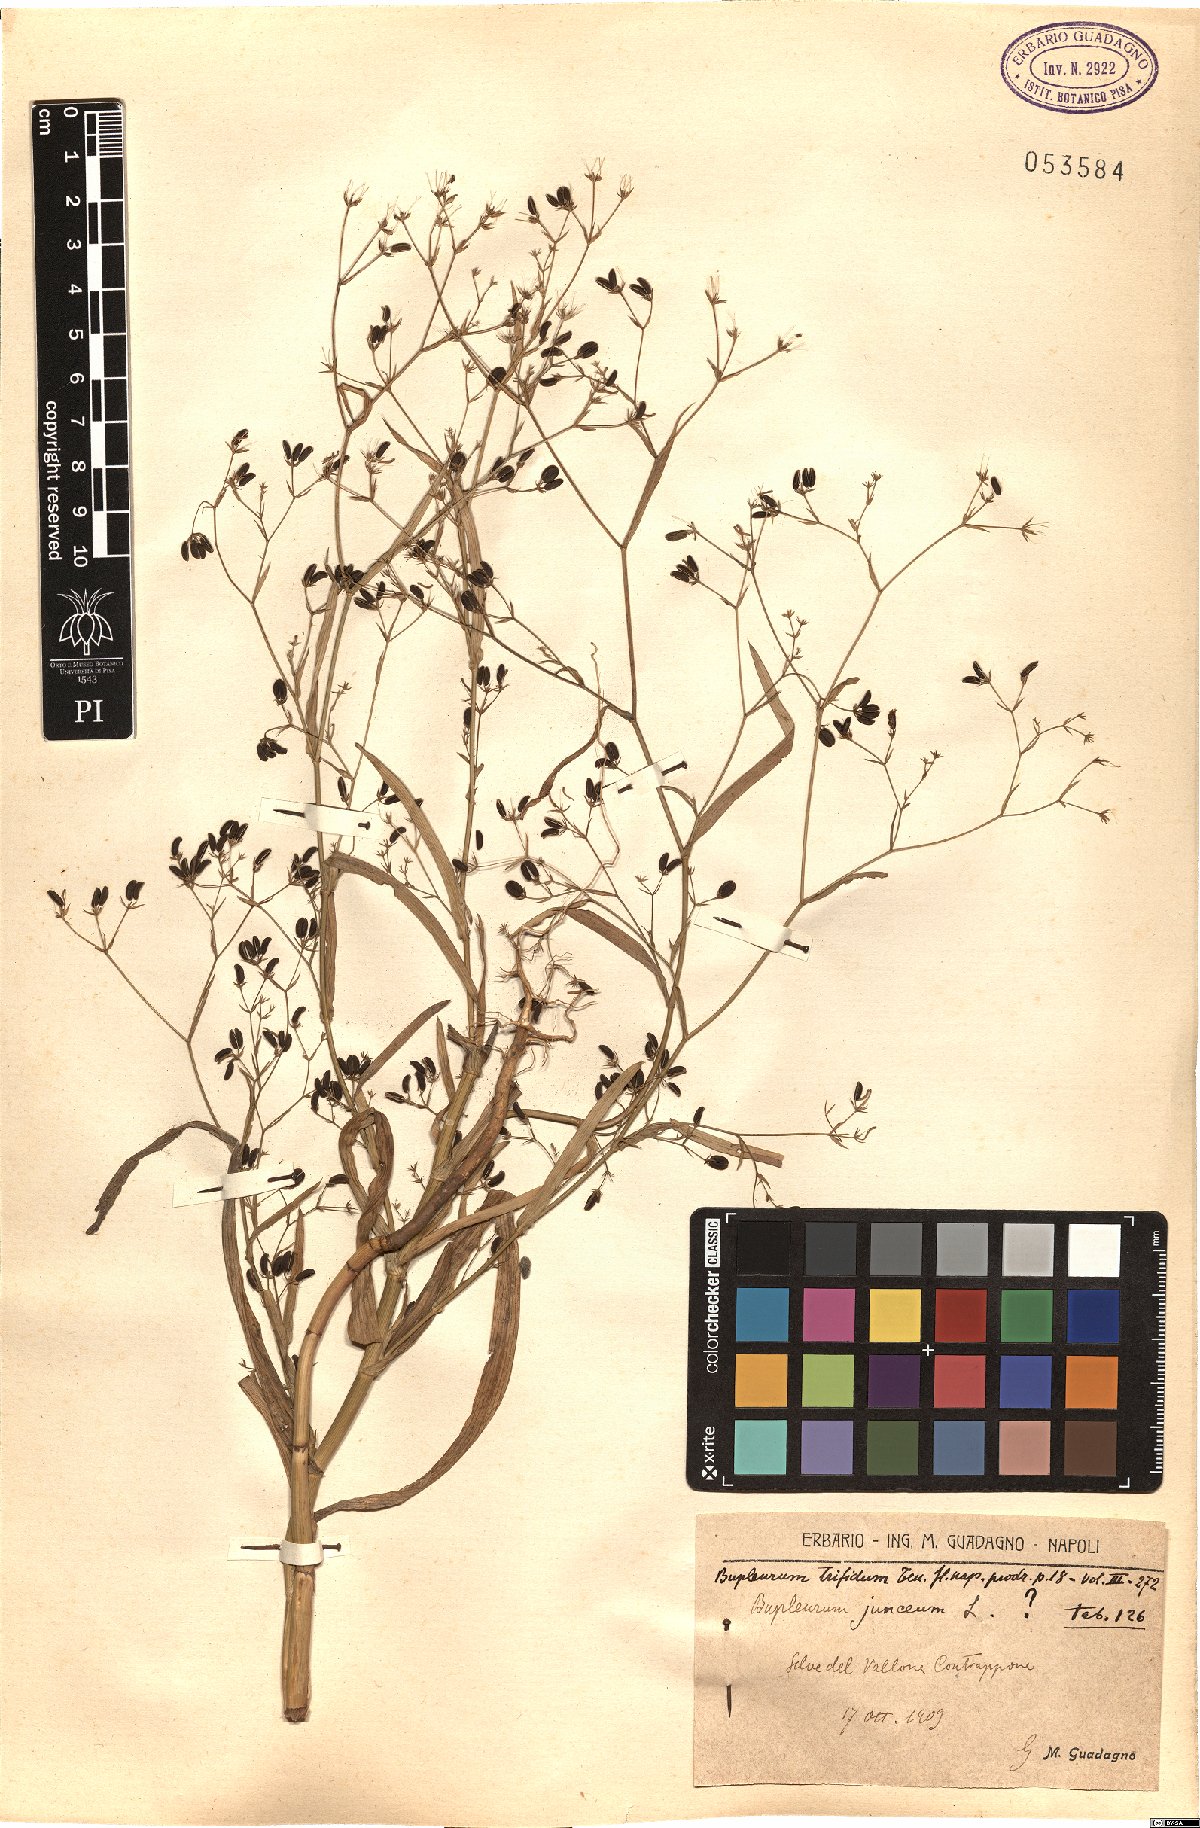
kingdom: Plantae
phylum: Tracheophyta
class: Magnoliopsida
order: Apiales
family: Apiaceae
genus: Bupleurum
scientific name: Bupleurum praealtum
